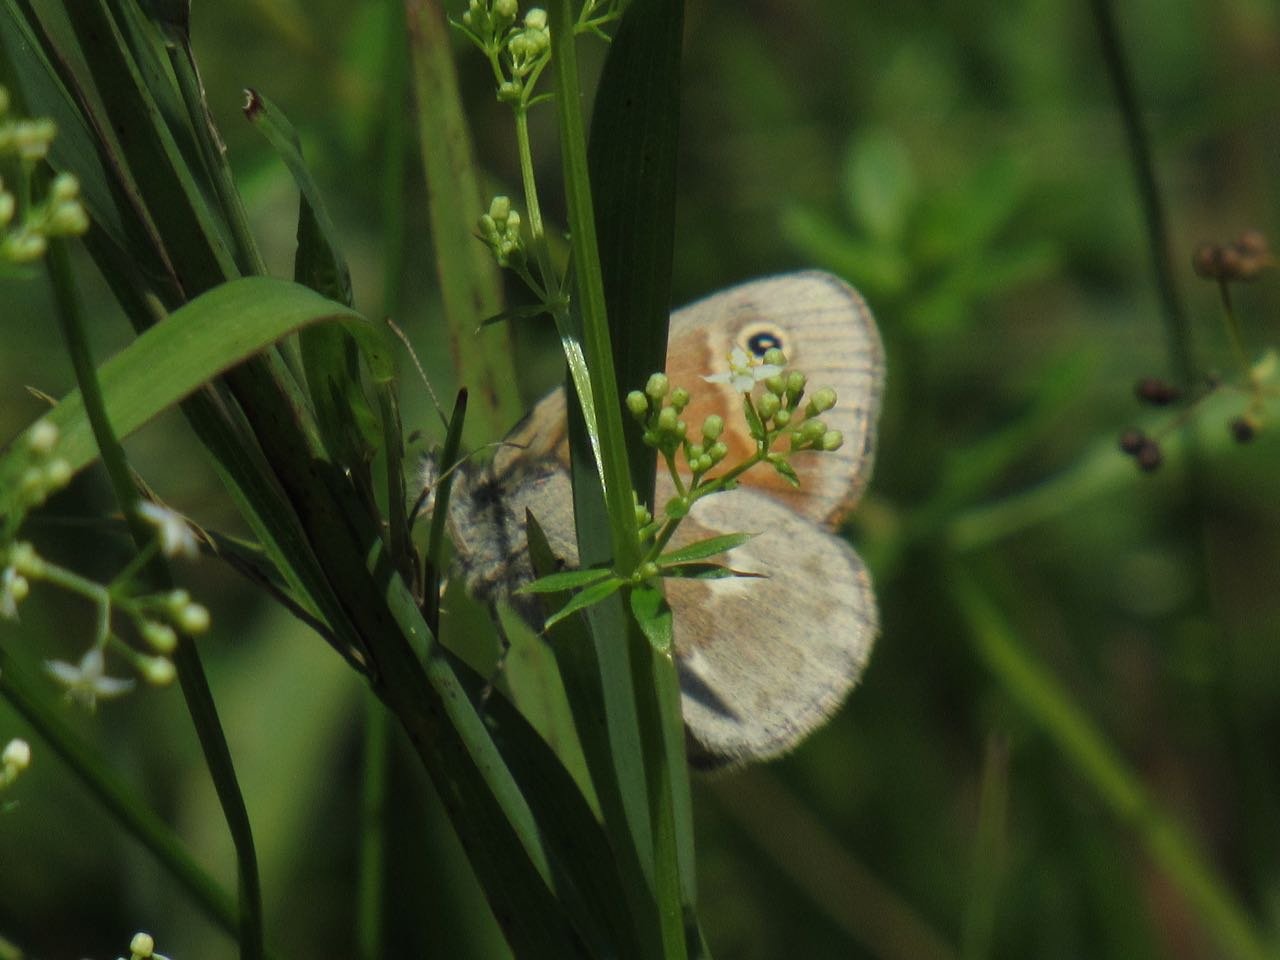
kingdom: Animalia
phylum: Arthropoda
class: Insecta
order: Lepidoptera
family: Nymphalidae
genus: Coenonympha
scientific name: Coenonympha tullia
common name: Large Heath
